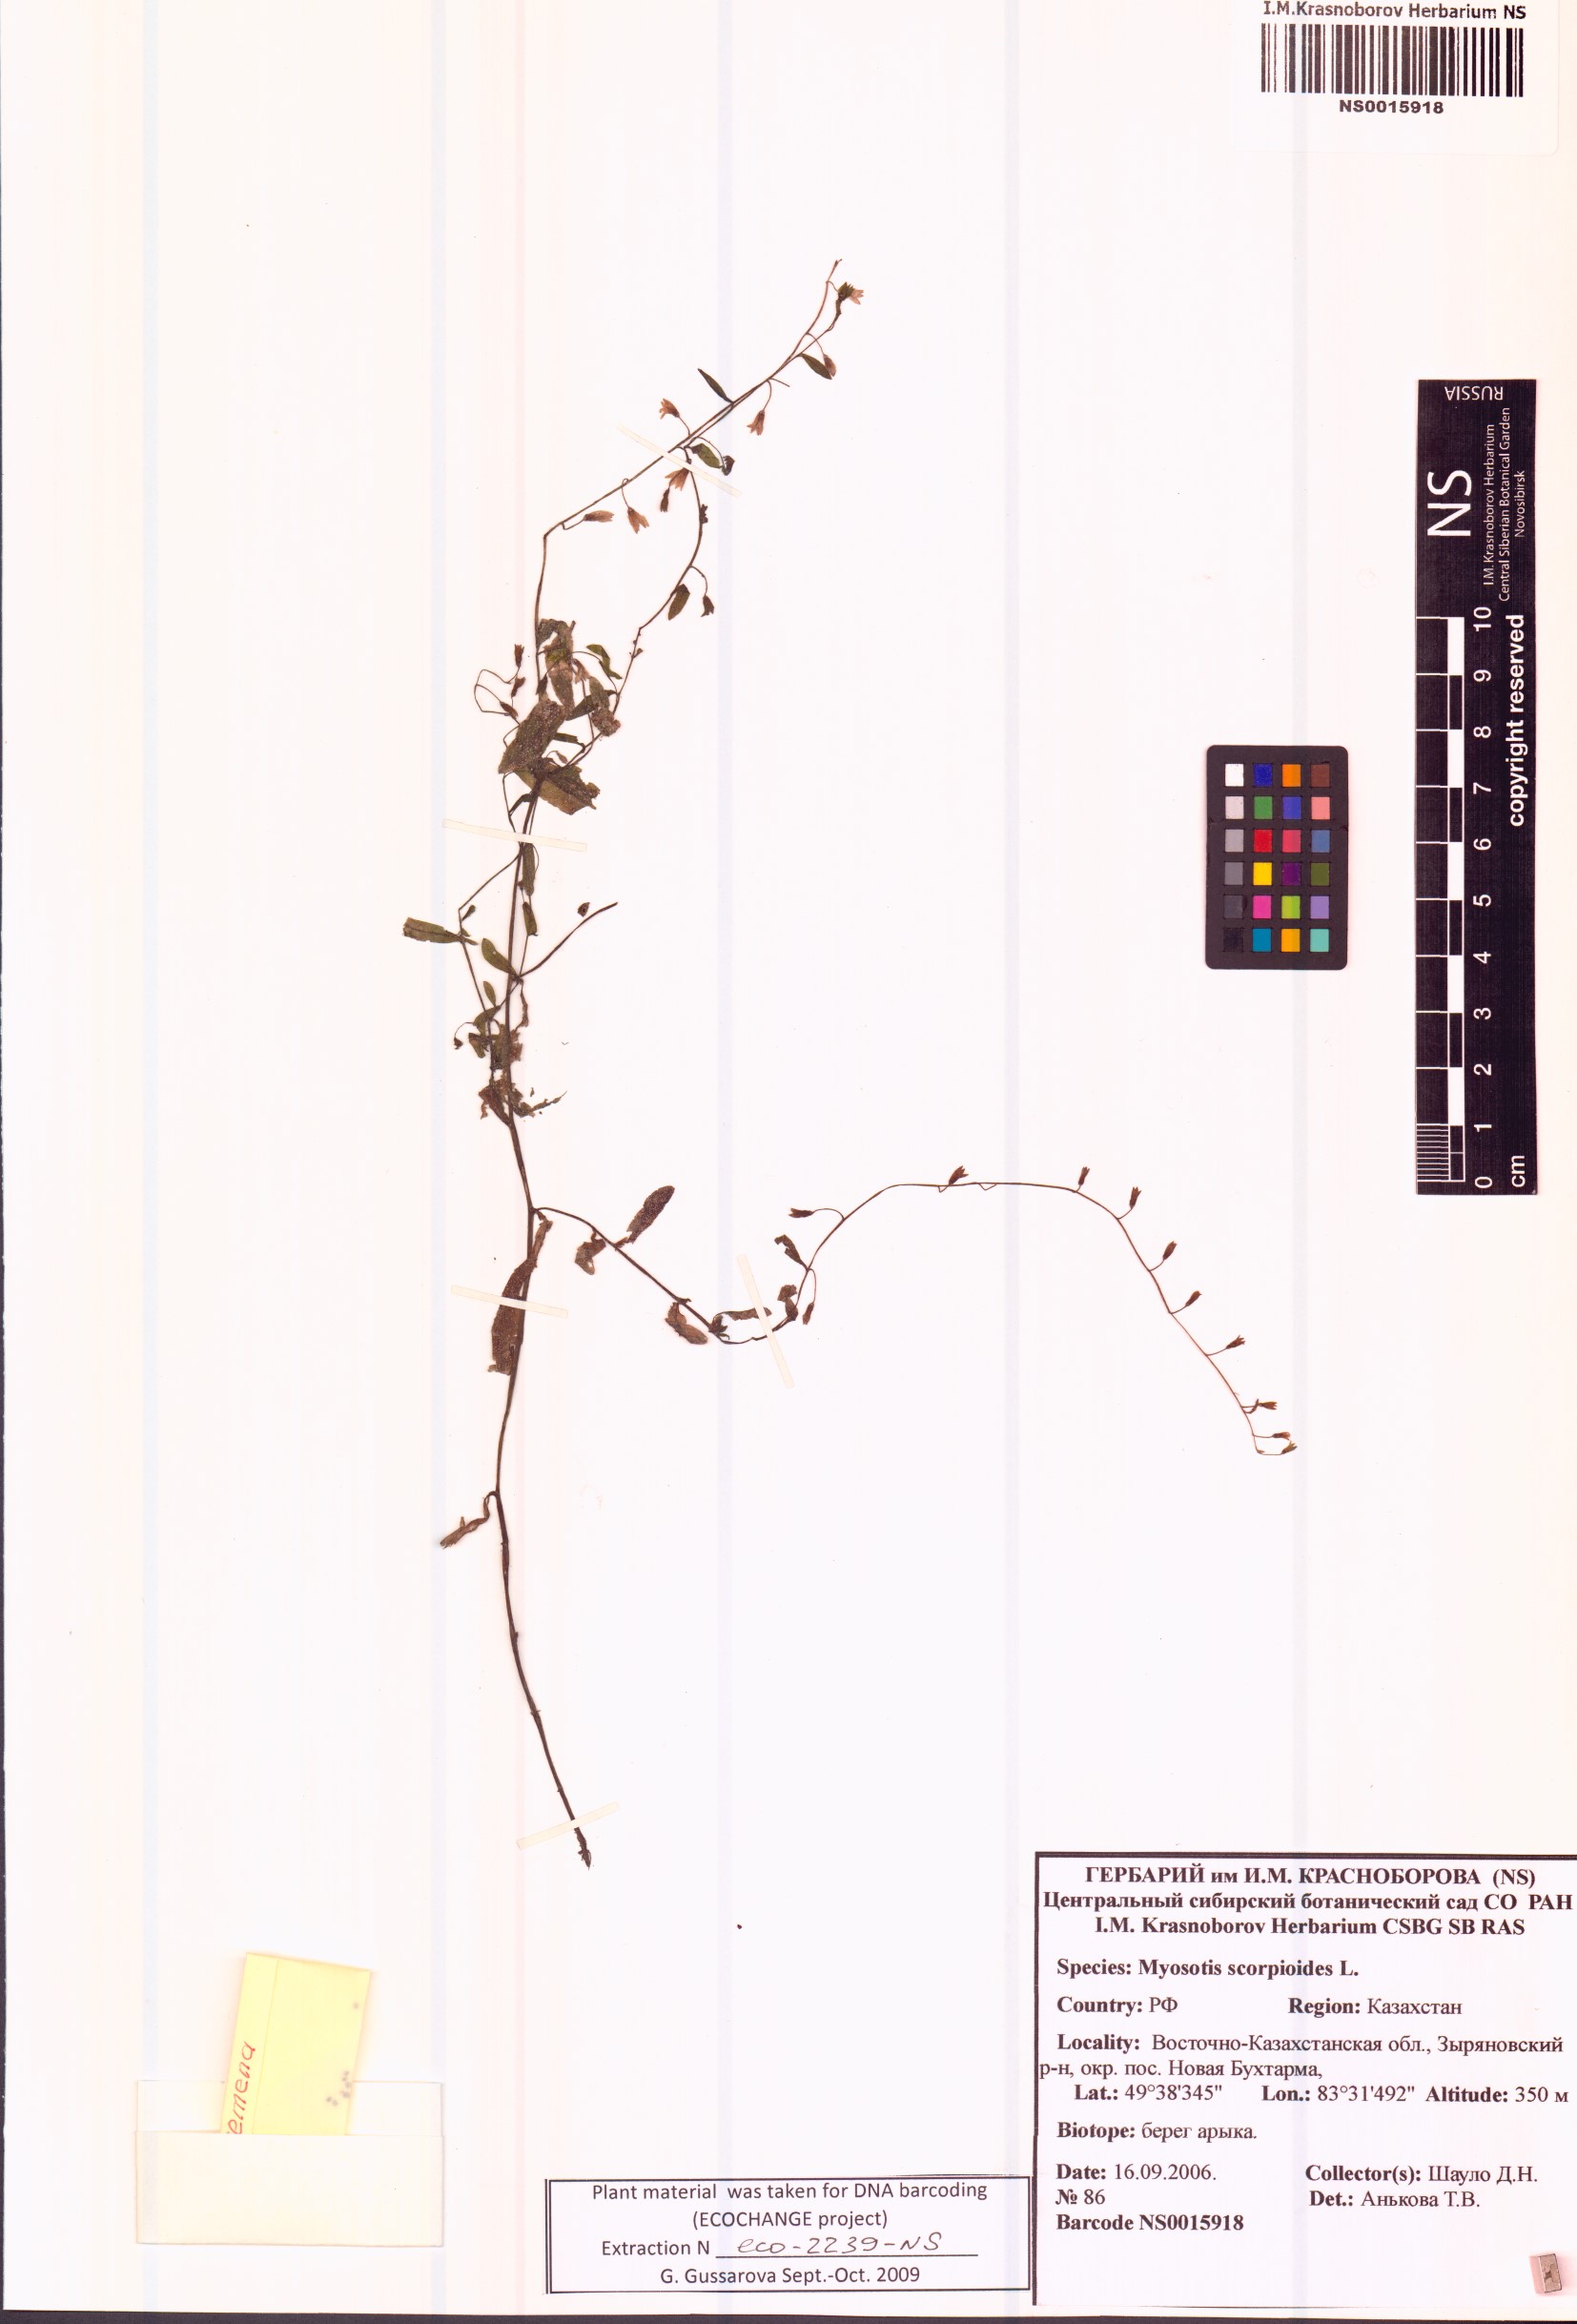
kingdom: Plantae
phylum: Tracheophyta
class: Magnoliopsida
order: Boraginales
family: Boraginaceae
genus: Myosotis
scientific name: Myosotis scorpioides
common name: Water forget-me-not
